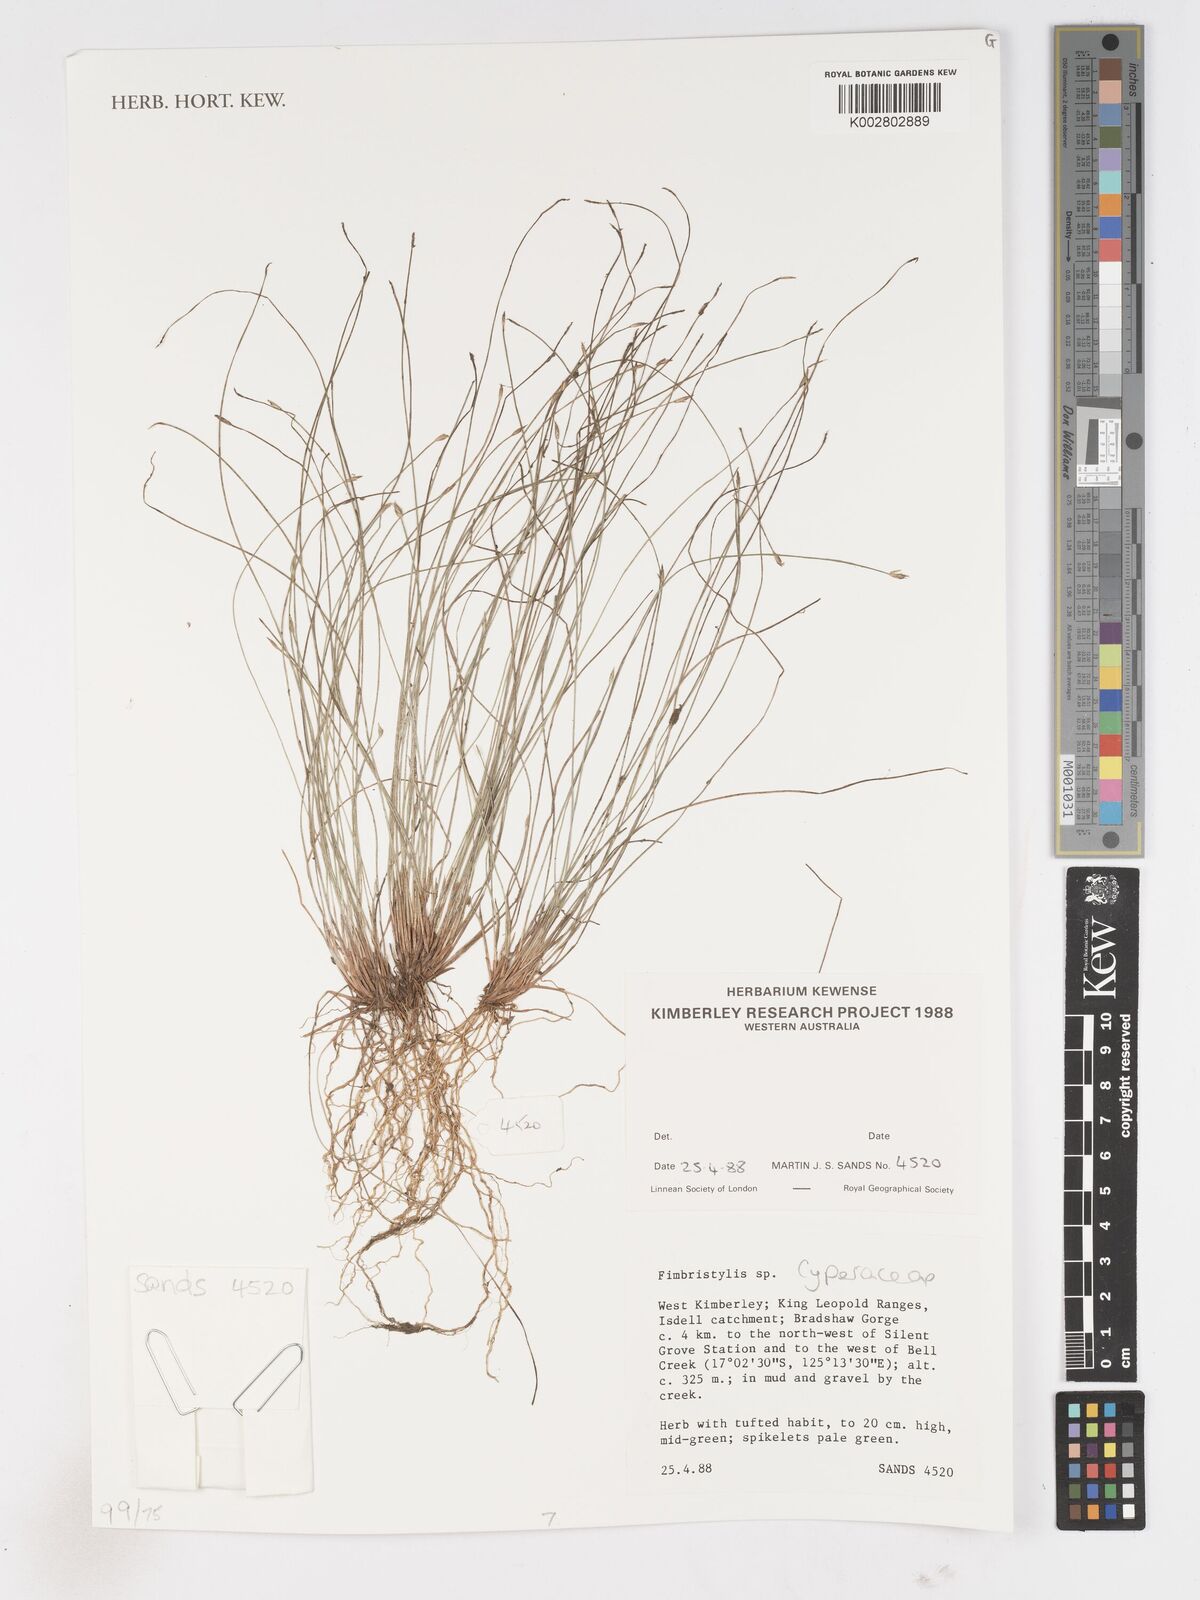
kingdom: Plantae
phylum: Tracheophyta
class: Liliopsida
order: Poales
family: Cyperaceae
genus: Fimbristylis
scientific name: Fimbristylis
